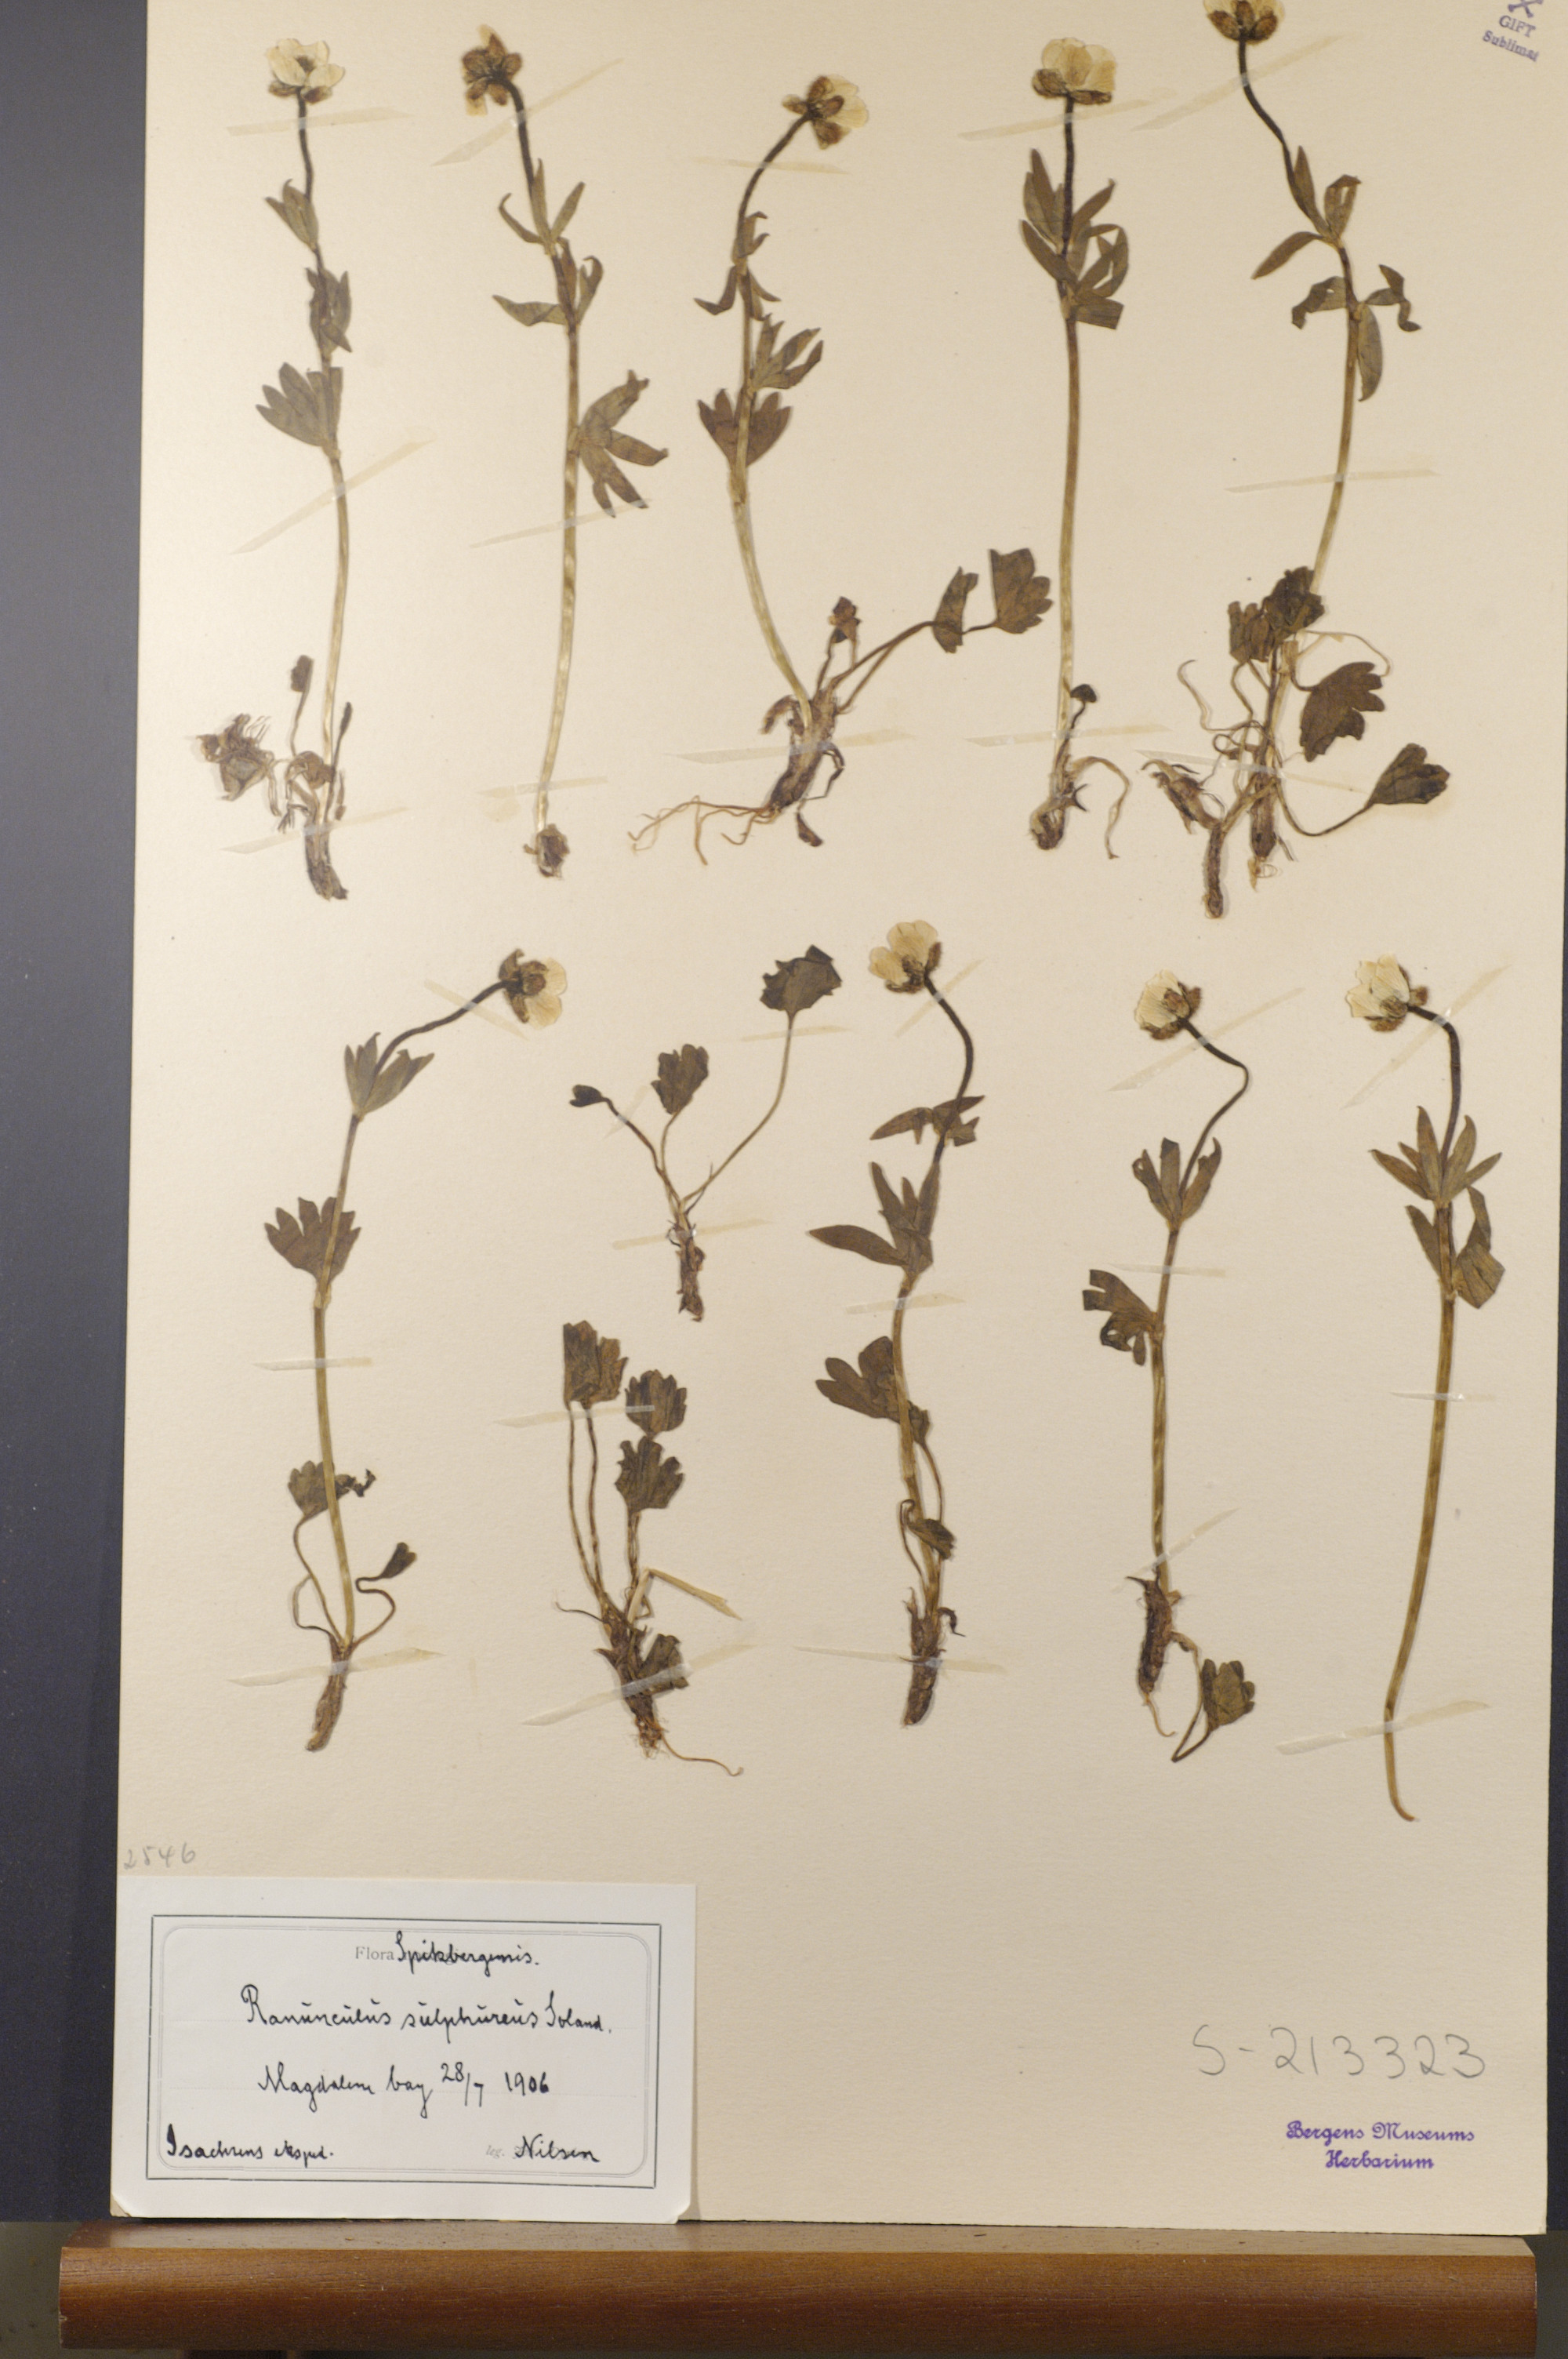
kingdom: Plantae
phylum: Tracheophyta
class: Magnoliopsida
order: Ranunculales
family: Ranunculaceae
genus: Ranunculus
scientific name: Ranunculus sulphureus
